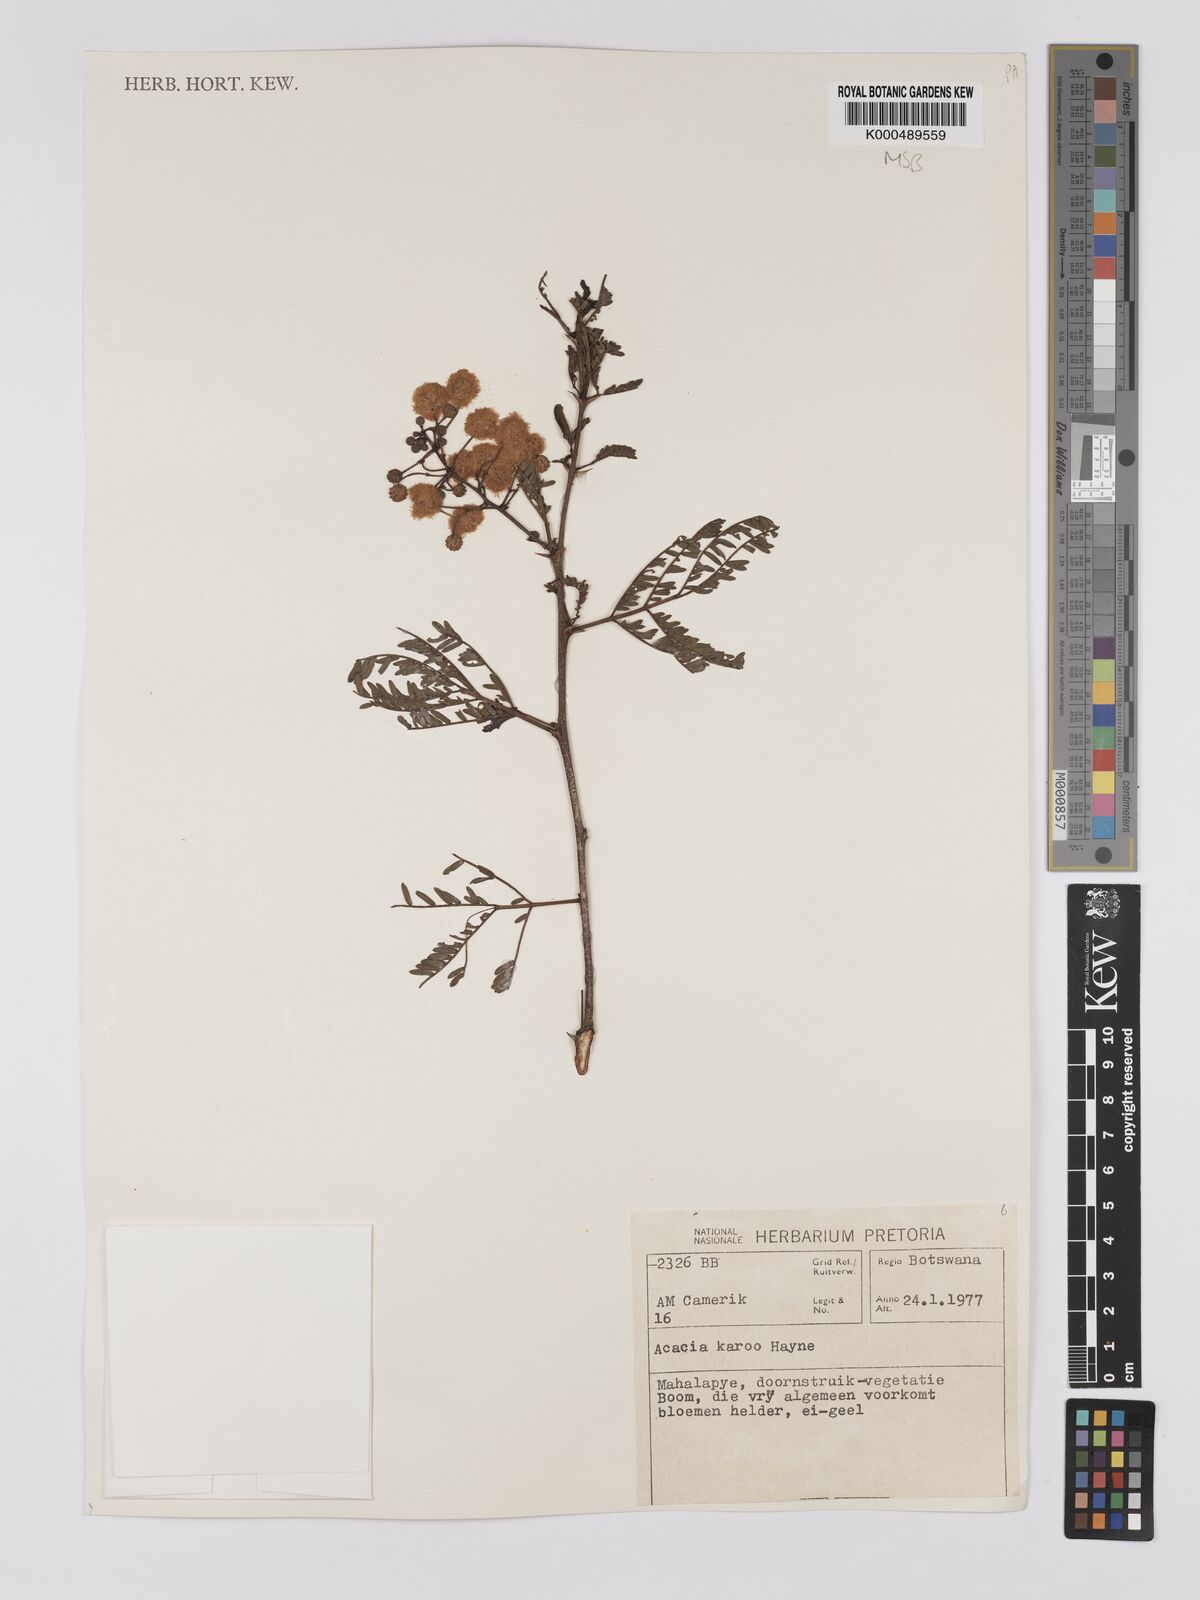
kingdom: Plantae
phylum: Tracheophyta
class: Magnoliopsida
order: Fabales
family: Fabaceae
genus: Vachellia
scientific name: Vachellia karroo
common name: Sweet thorn
